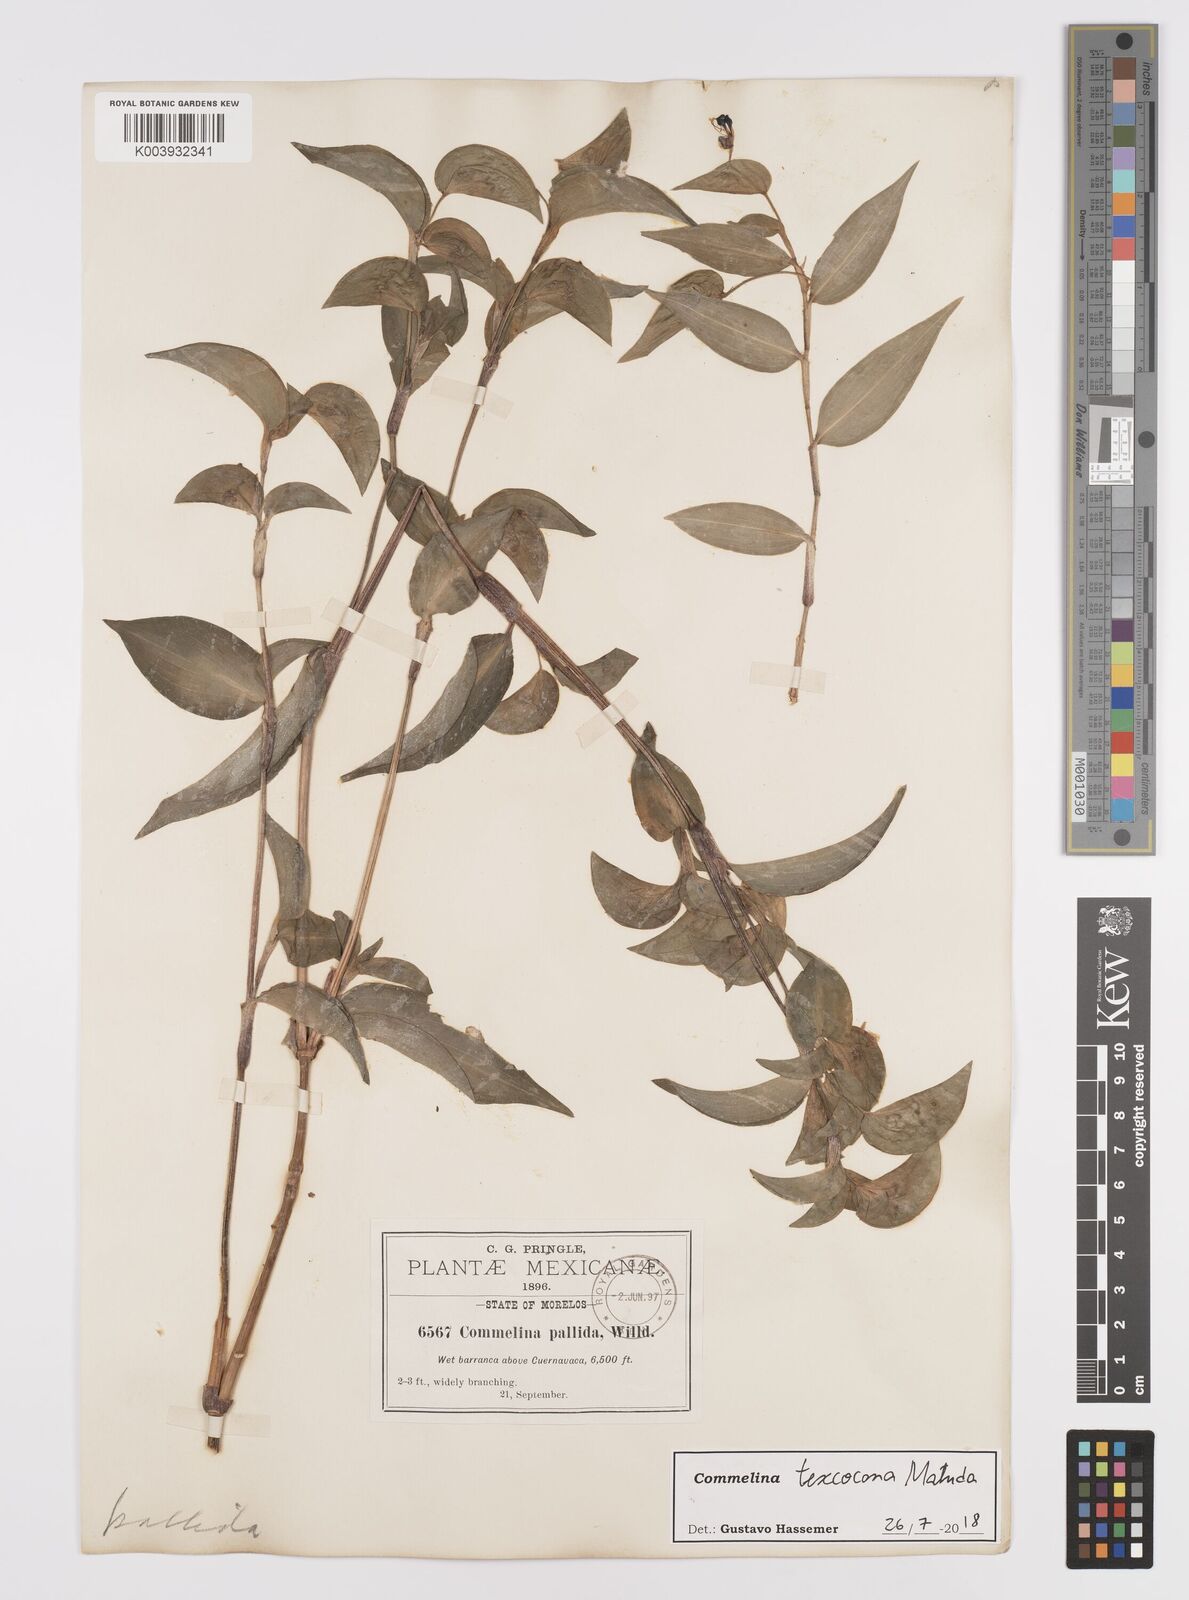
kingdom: Plantae
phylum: Tracheophyta
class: Liliopsida
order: Commelinales
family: Commelinaceae
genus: Commelina
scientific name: Commelina texcocana
